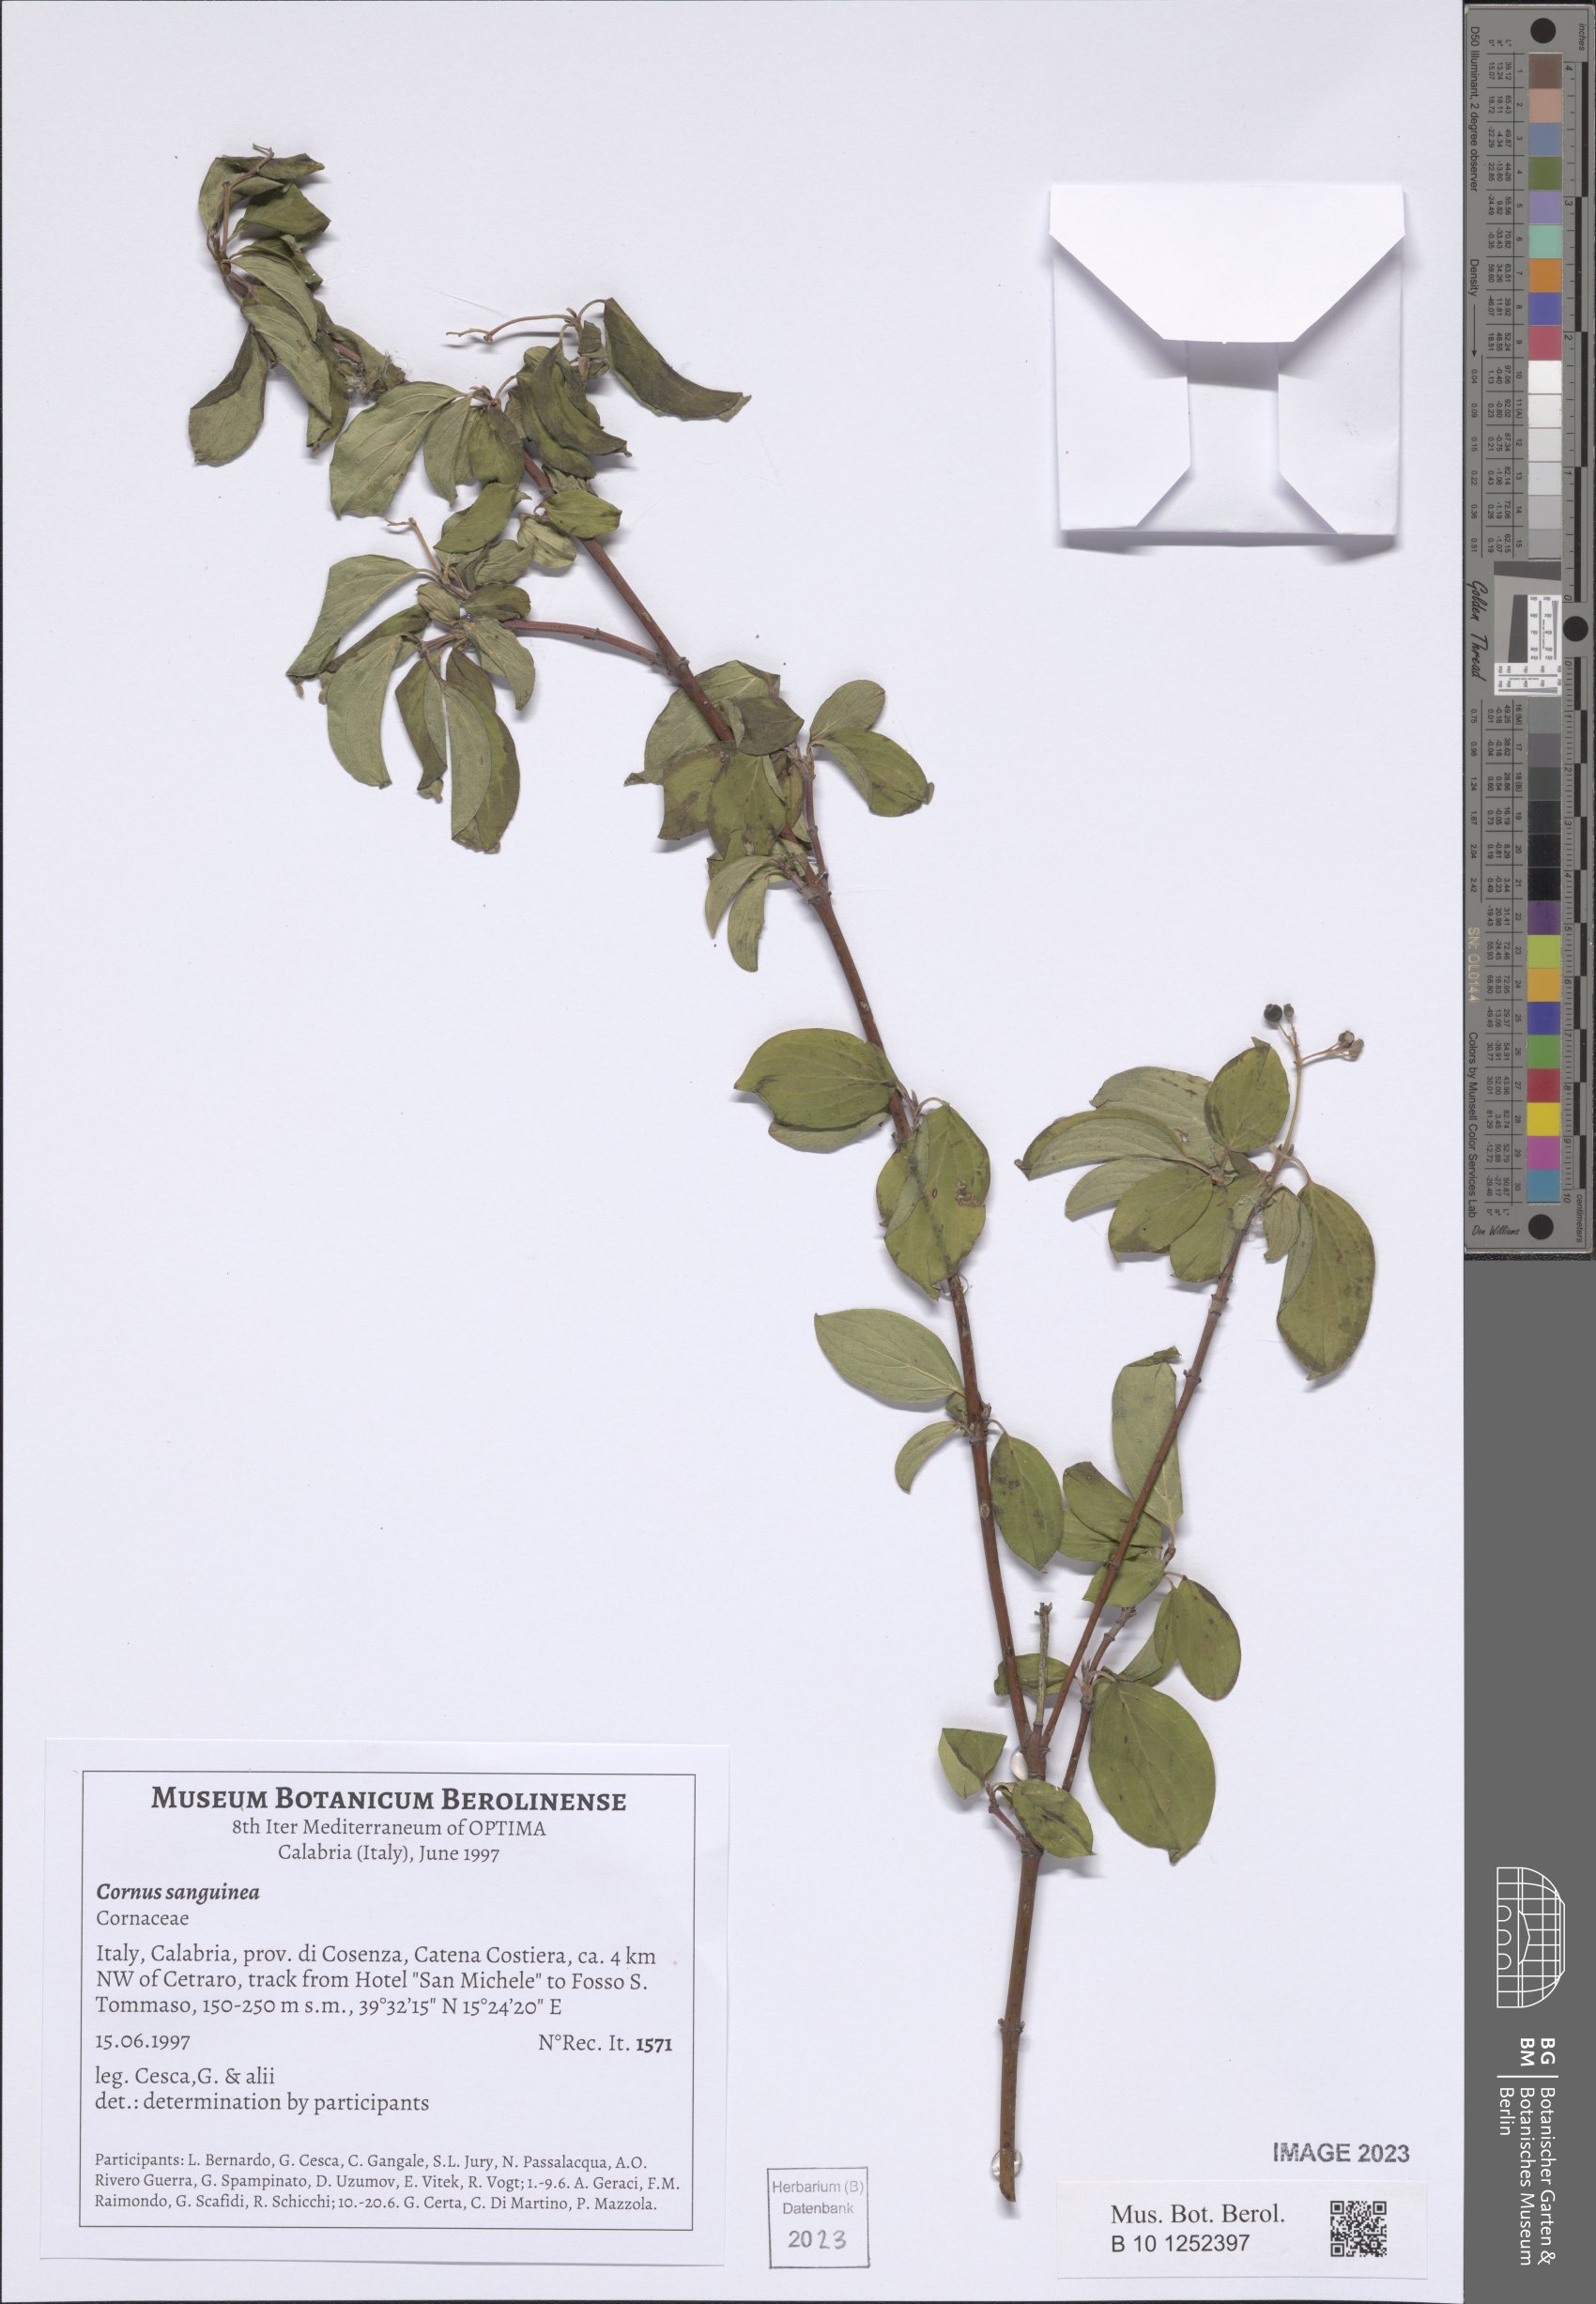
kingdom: Plantae
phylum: Tracheophyta
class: Magnoliopsida
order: Cornales
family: Cornaceae
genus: Cornus
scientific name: Cornus sanguinea
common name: Dogwood
